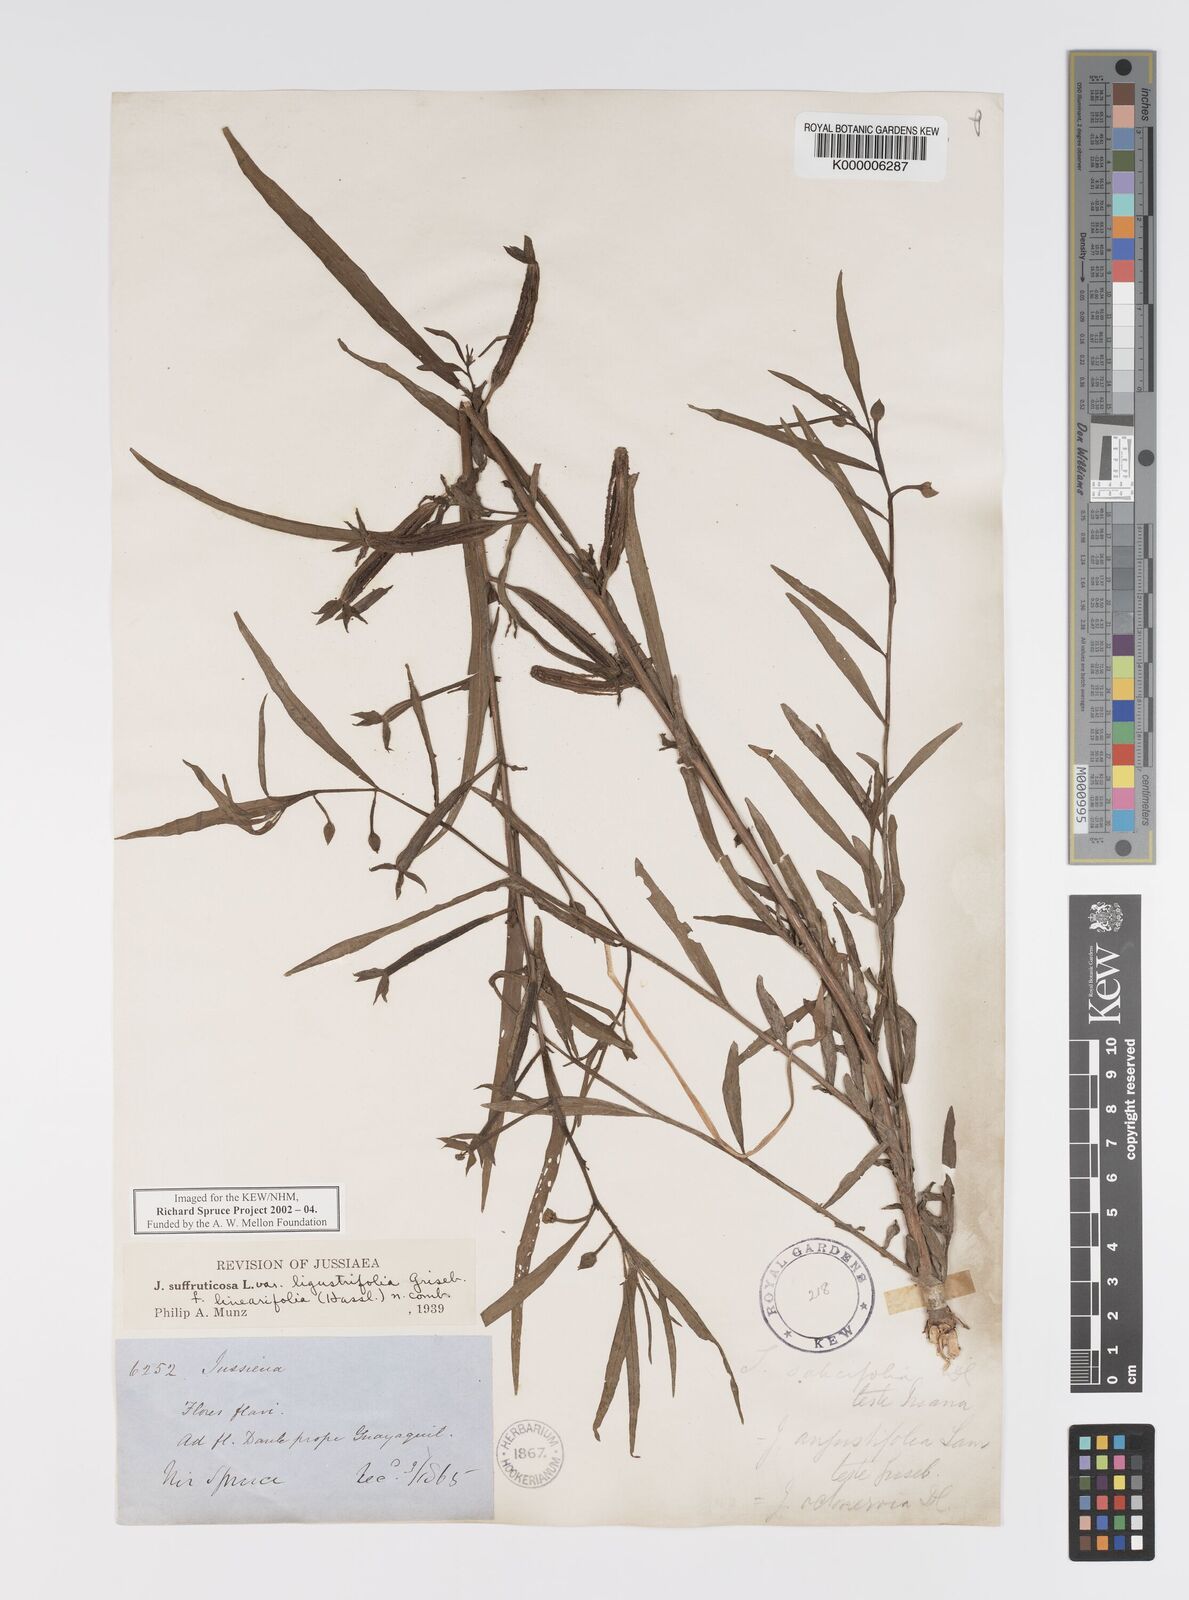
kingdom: Plantae
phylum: Tracheophyta
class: Magnoliopsida
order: Myrtales
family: Onagraceae
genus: Ludwigia
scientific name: Ludwigia suffruticosa
